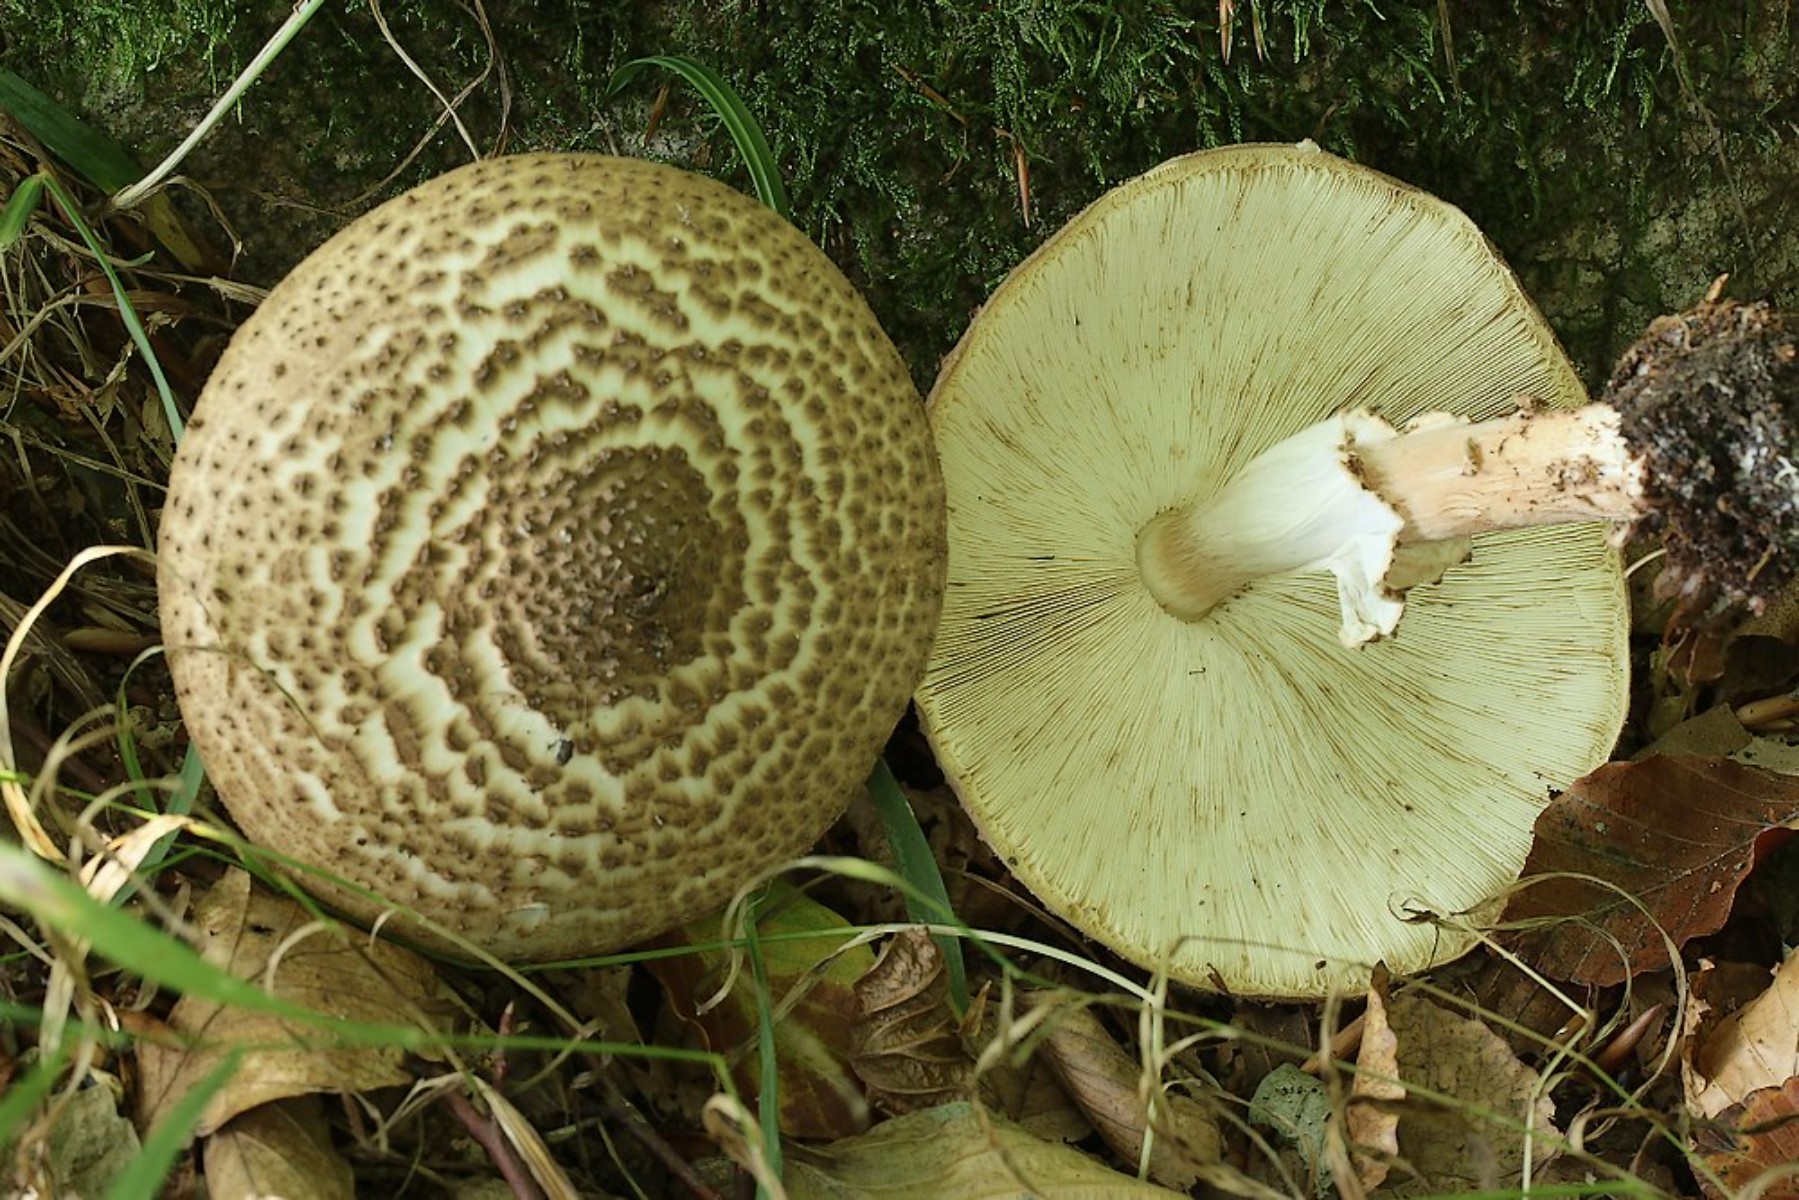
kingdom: Fungi
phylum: Basidiomycota
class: Agaricomycetes
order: Agaricales
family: Agaricaceae
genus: Echinoderma
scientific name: Echinoderma asperum
